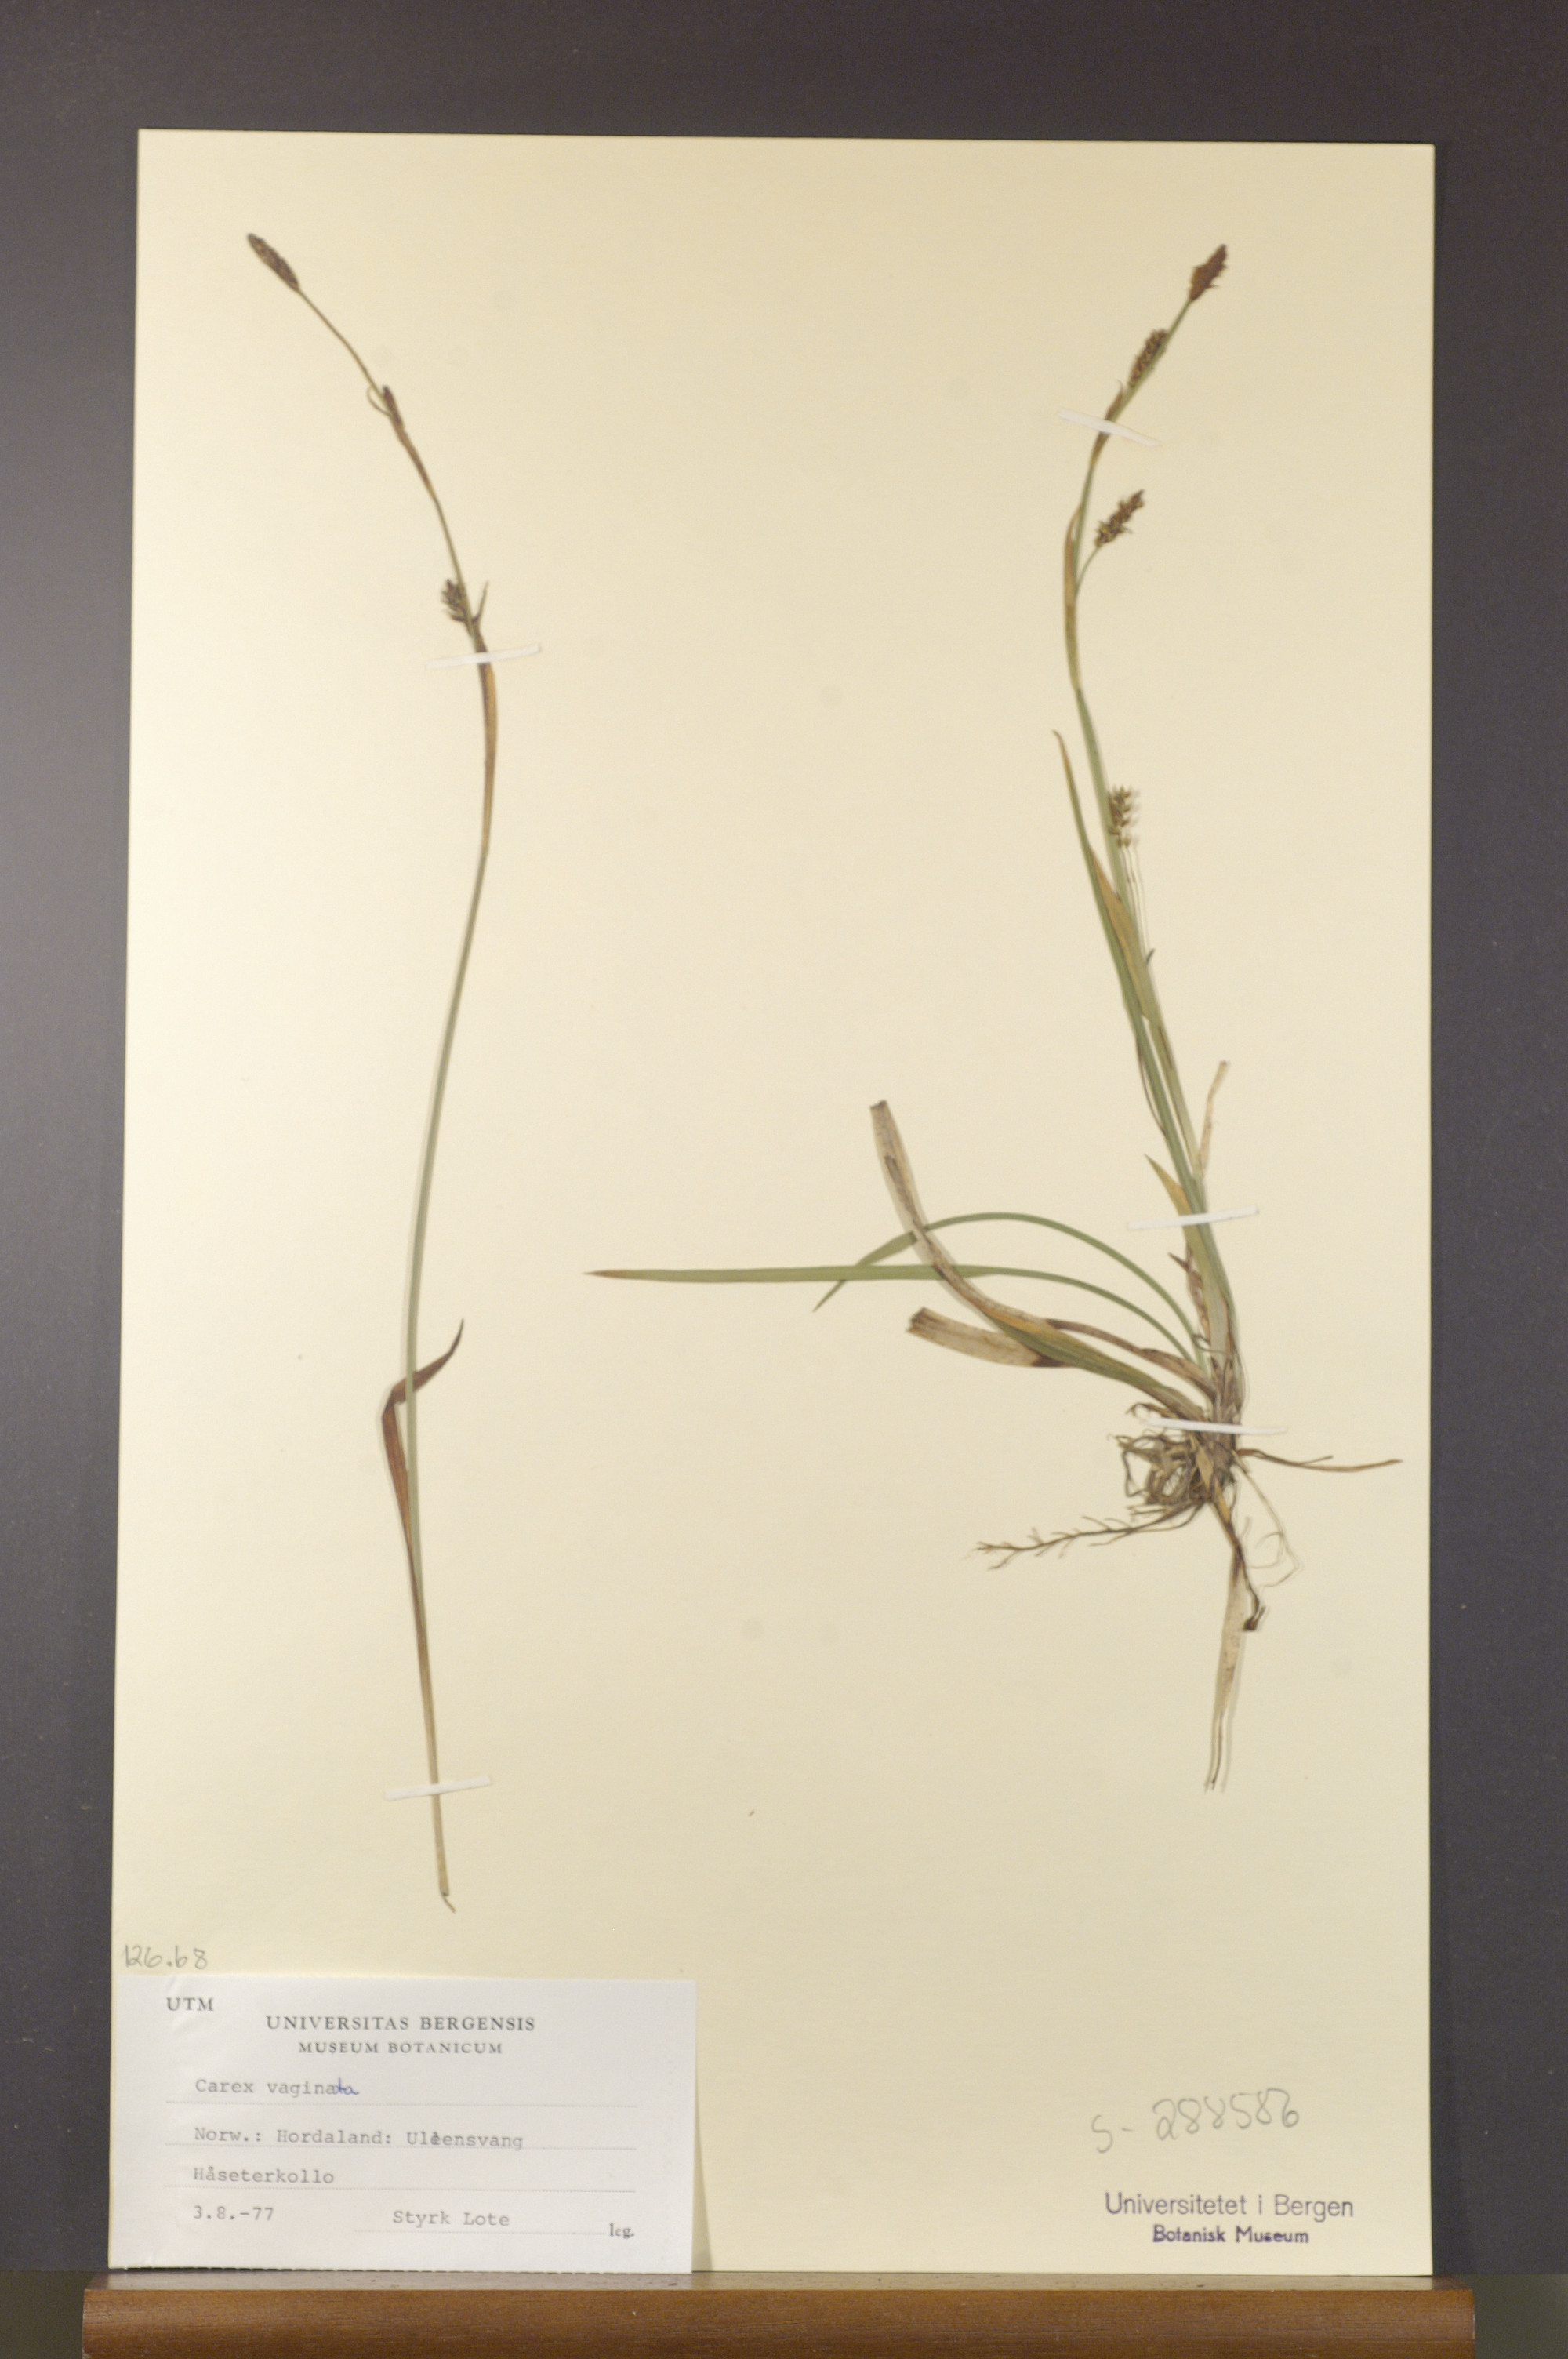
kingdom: Plantae
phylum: Tracheophyta
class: Liliopsida
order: Poales
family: Cyperaceae
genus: Carex
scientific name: Carex vaginata
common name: Sheathed sedge
